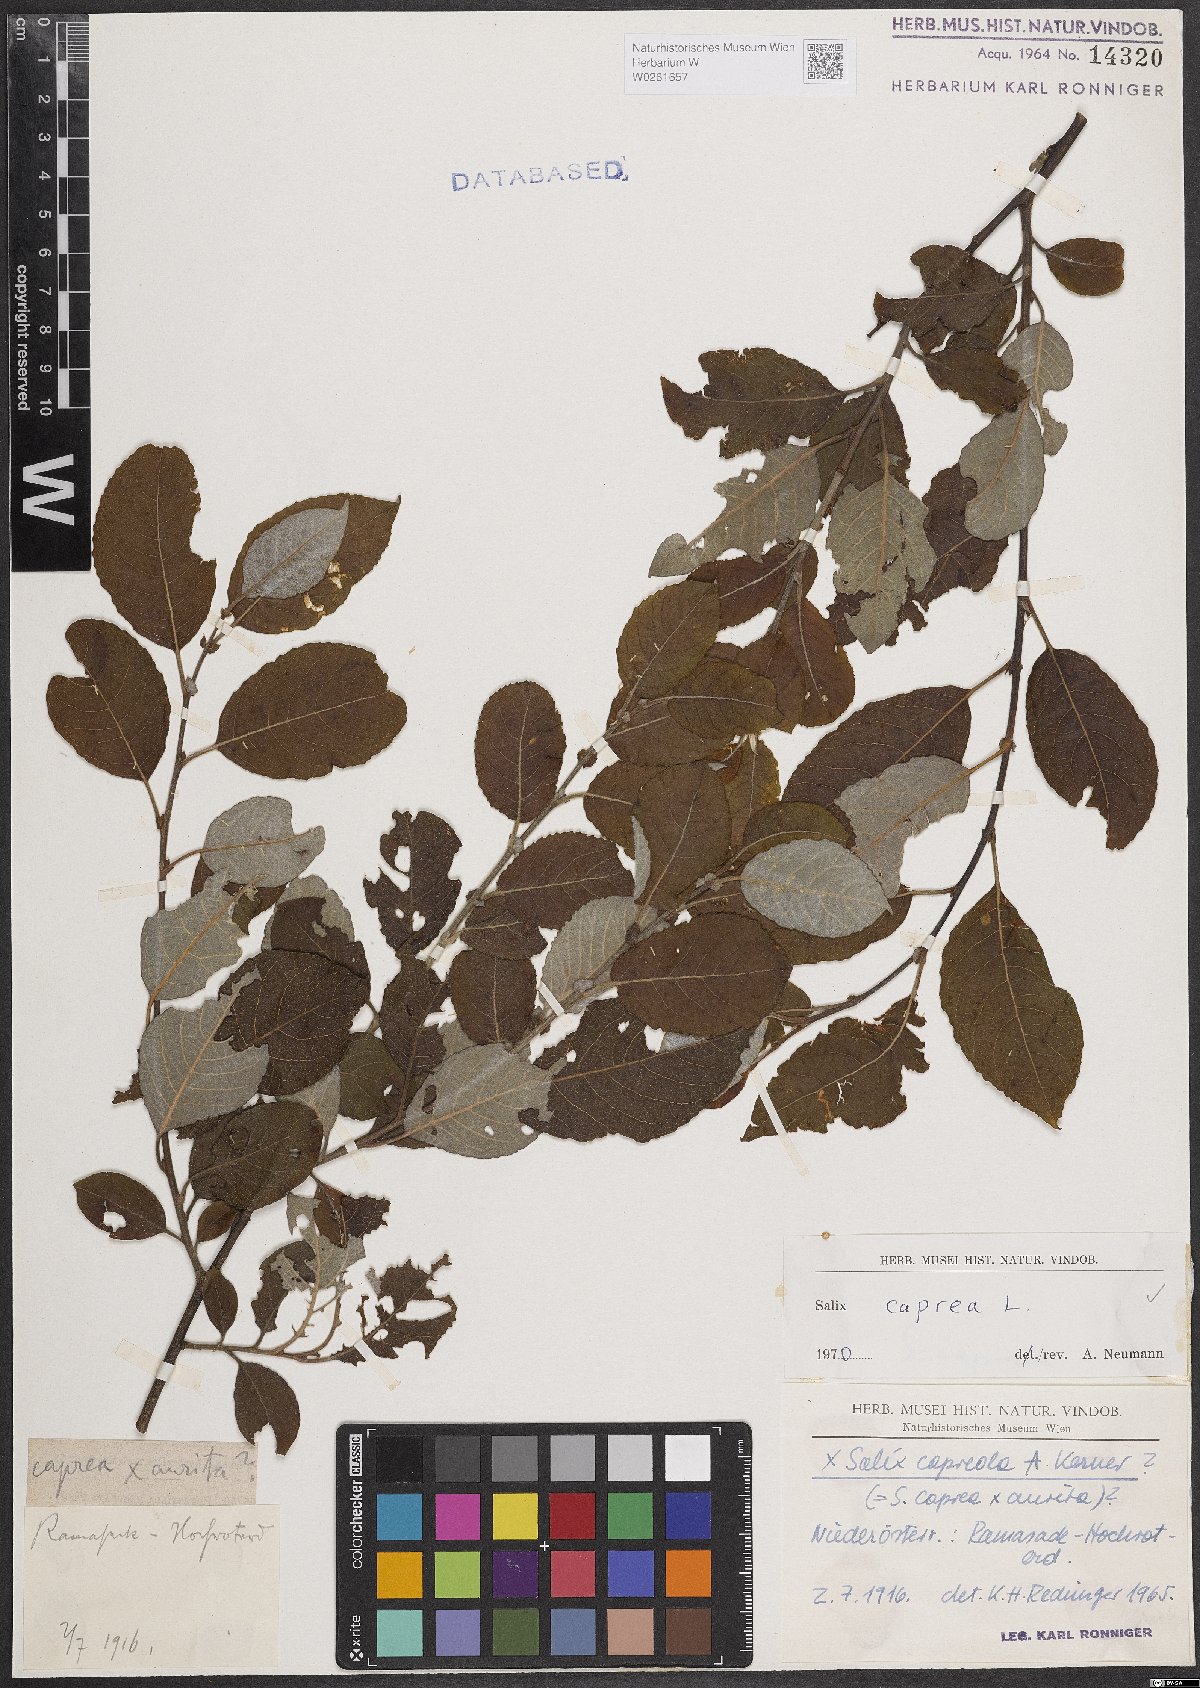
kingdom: Plantae
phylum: Tracheophyta
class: Magnoliopsida
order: Malpighiales
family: Salicaceae
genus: Salix
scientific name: Salix caprea
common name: Goat willow
